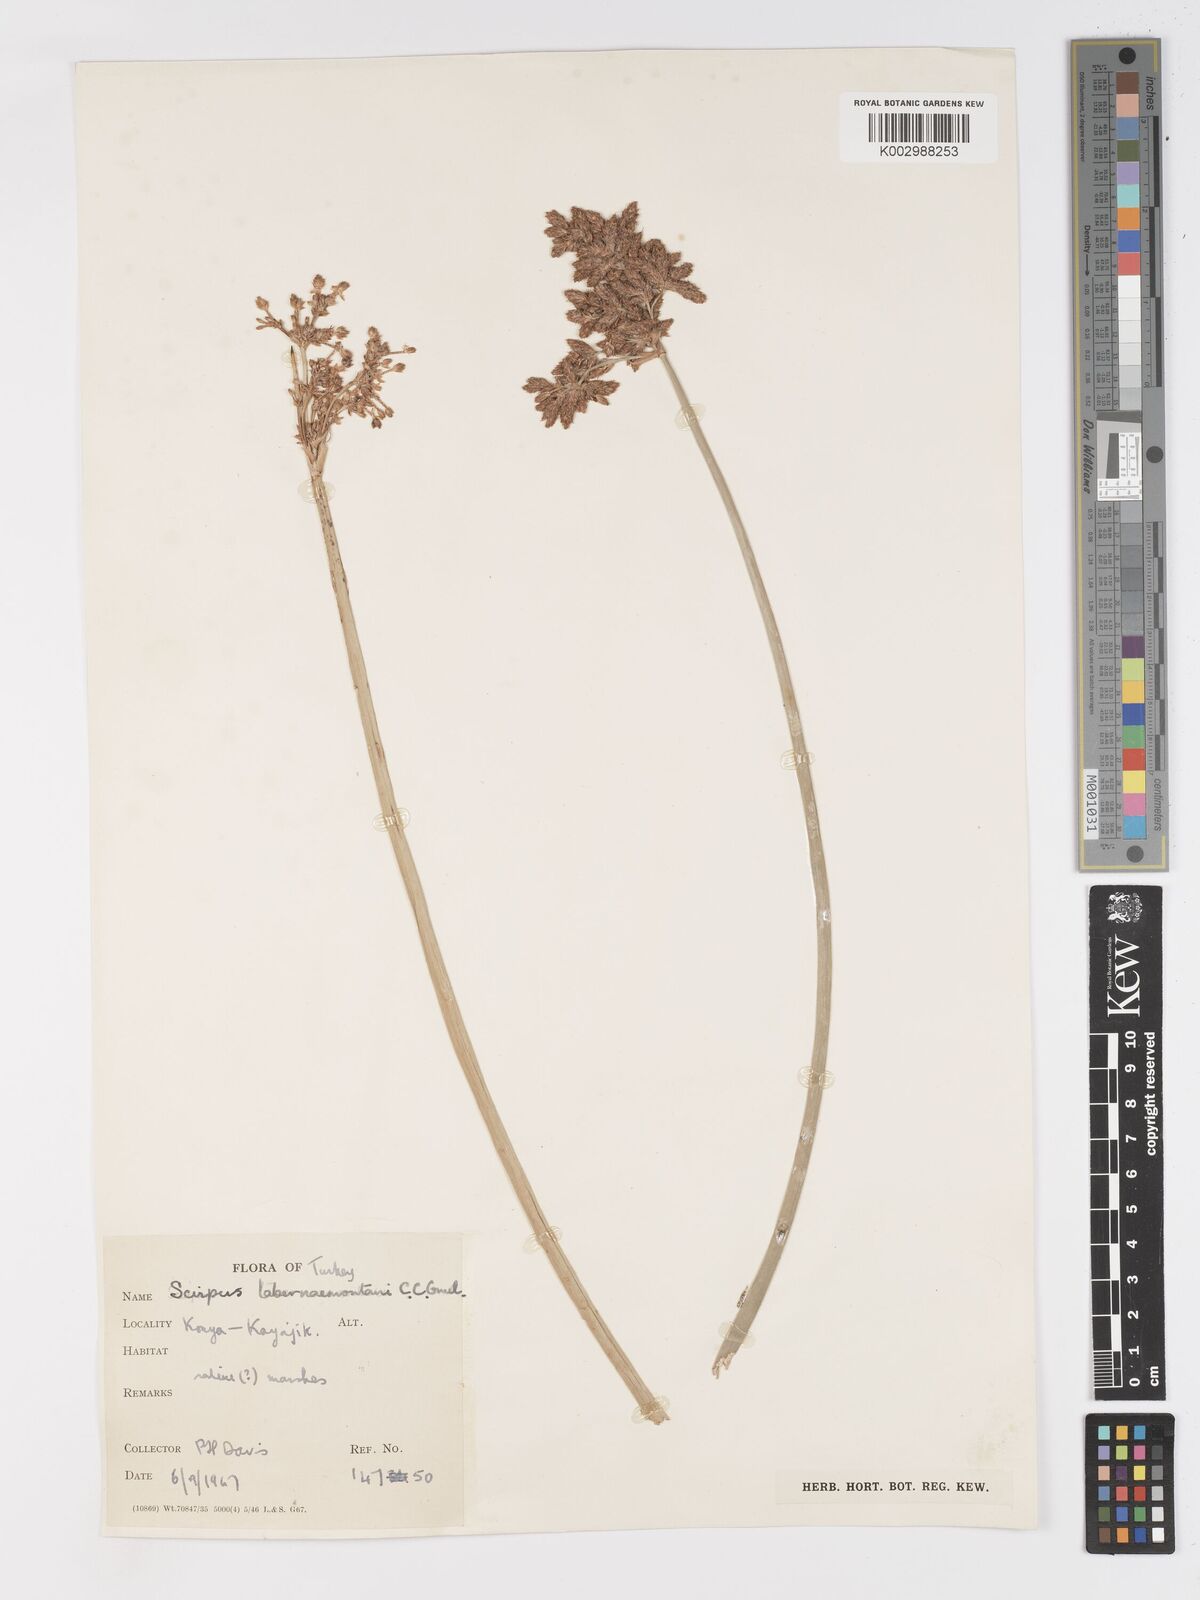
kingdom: Plantae
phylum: Tracheophyta
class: Liliopsida
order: Poales
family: Cyperaceae
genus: Schoenoplectus
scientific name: Schoenoplectus tabernaemontani
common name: Grey club-rush
